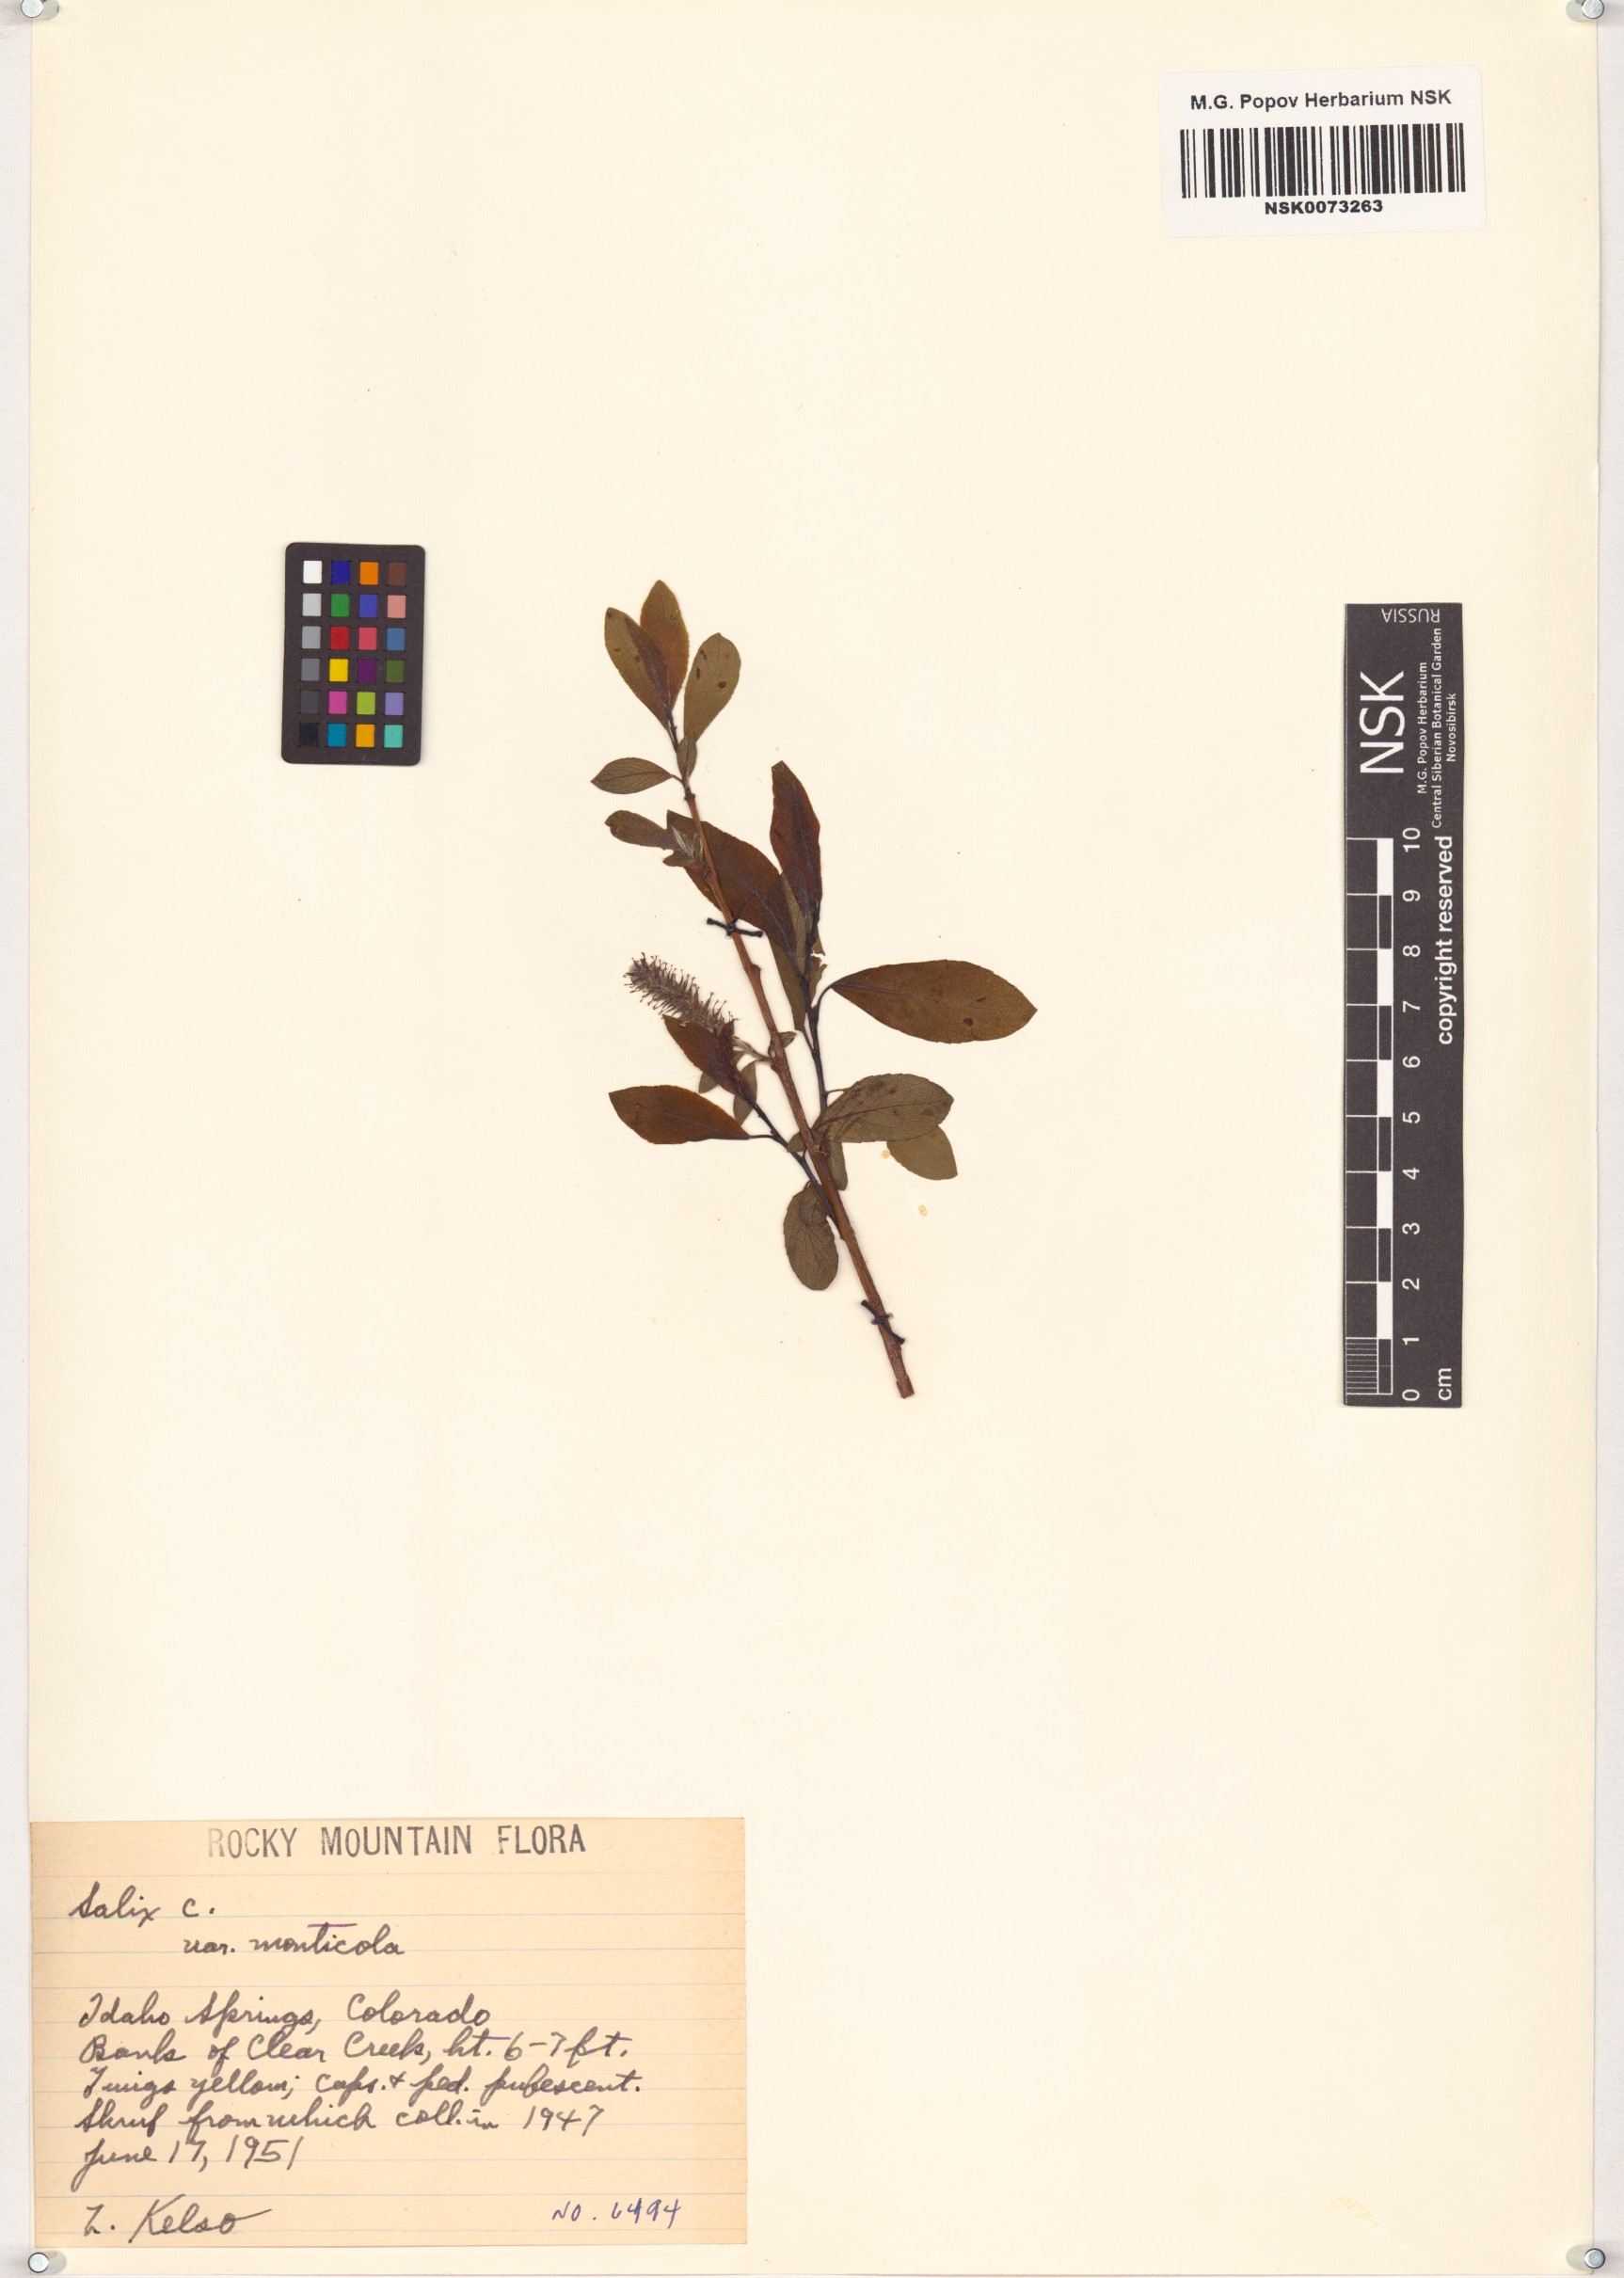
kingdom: Plantae
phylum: Tracheophyta
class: Magnoliopsida
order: Malpighiales
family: Salicaceae
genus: Salix
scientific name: Salix monticola
